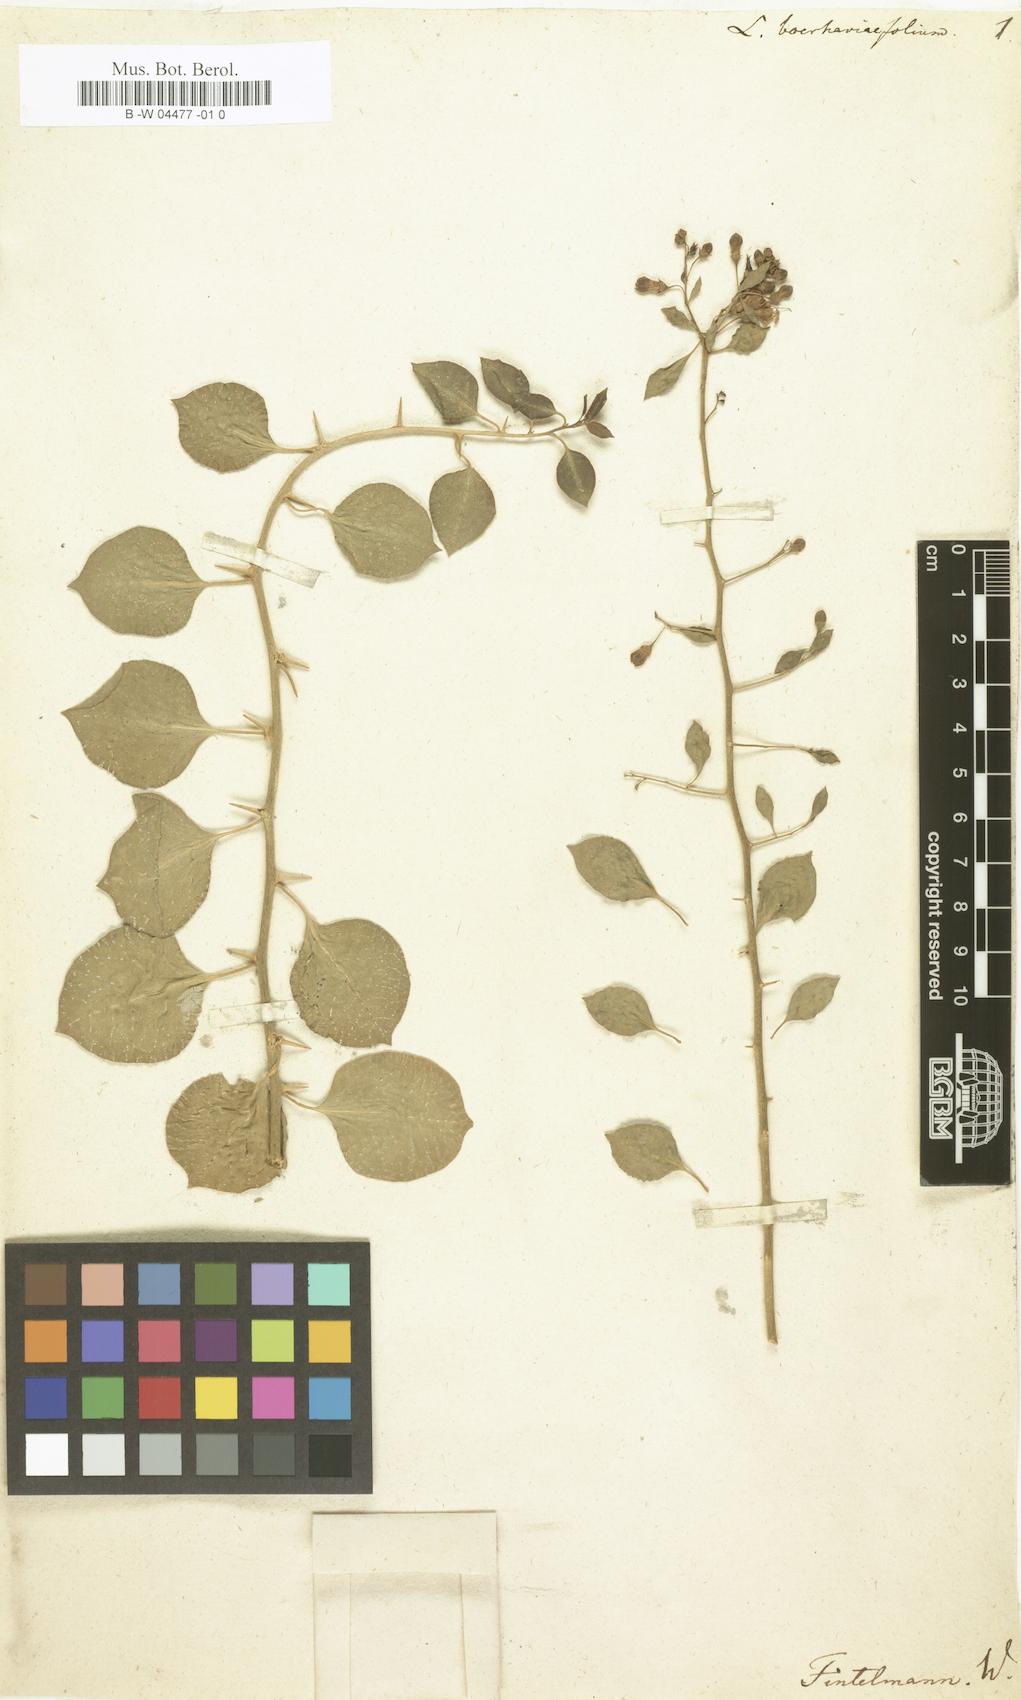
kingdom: Plantae
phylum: Tracheophyta
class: Magnoliopsida
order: Solanales
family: Solanaceae
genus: Lycium
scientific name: Lycium boerhaaviifolium
